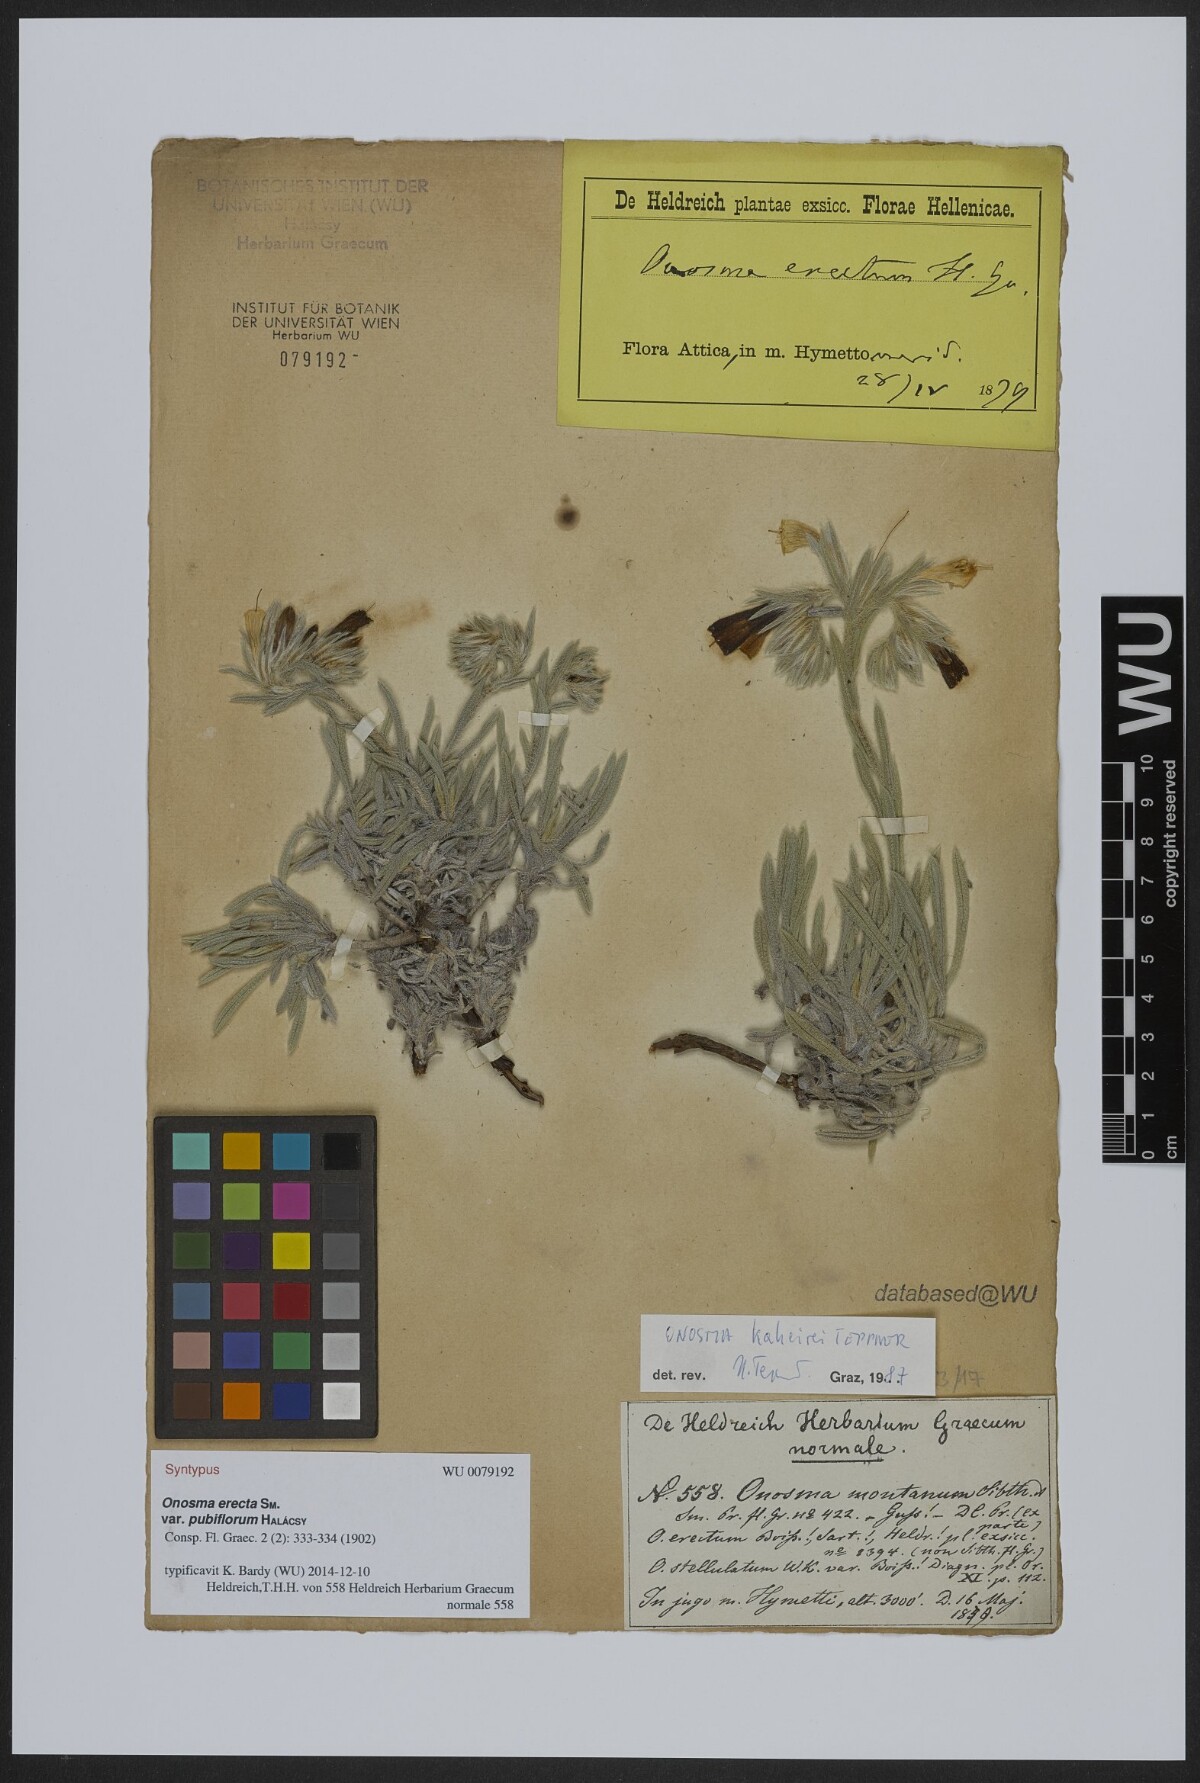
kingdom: Plantae
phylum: Tracheophyta
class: Magnoliopsida
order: Boraginales
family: Boraginaceae
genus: Onosma
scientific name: Onosma kaheirei
